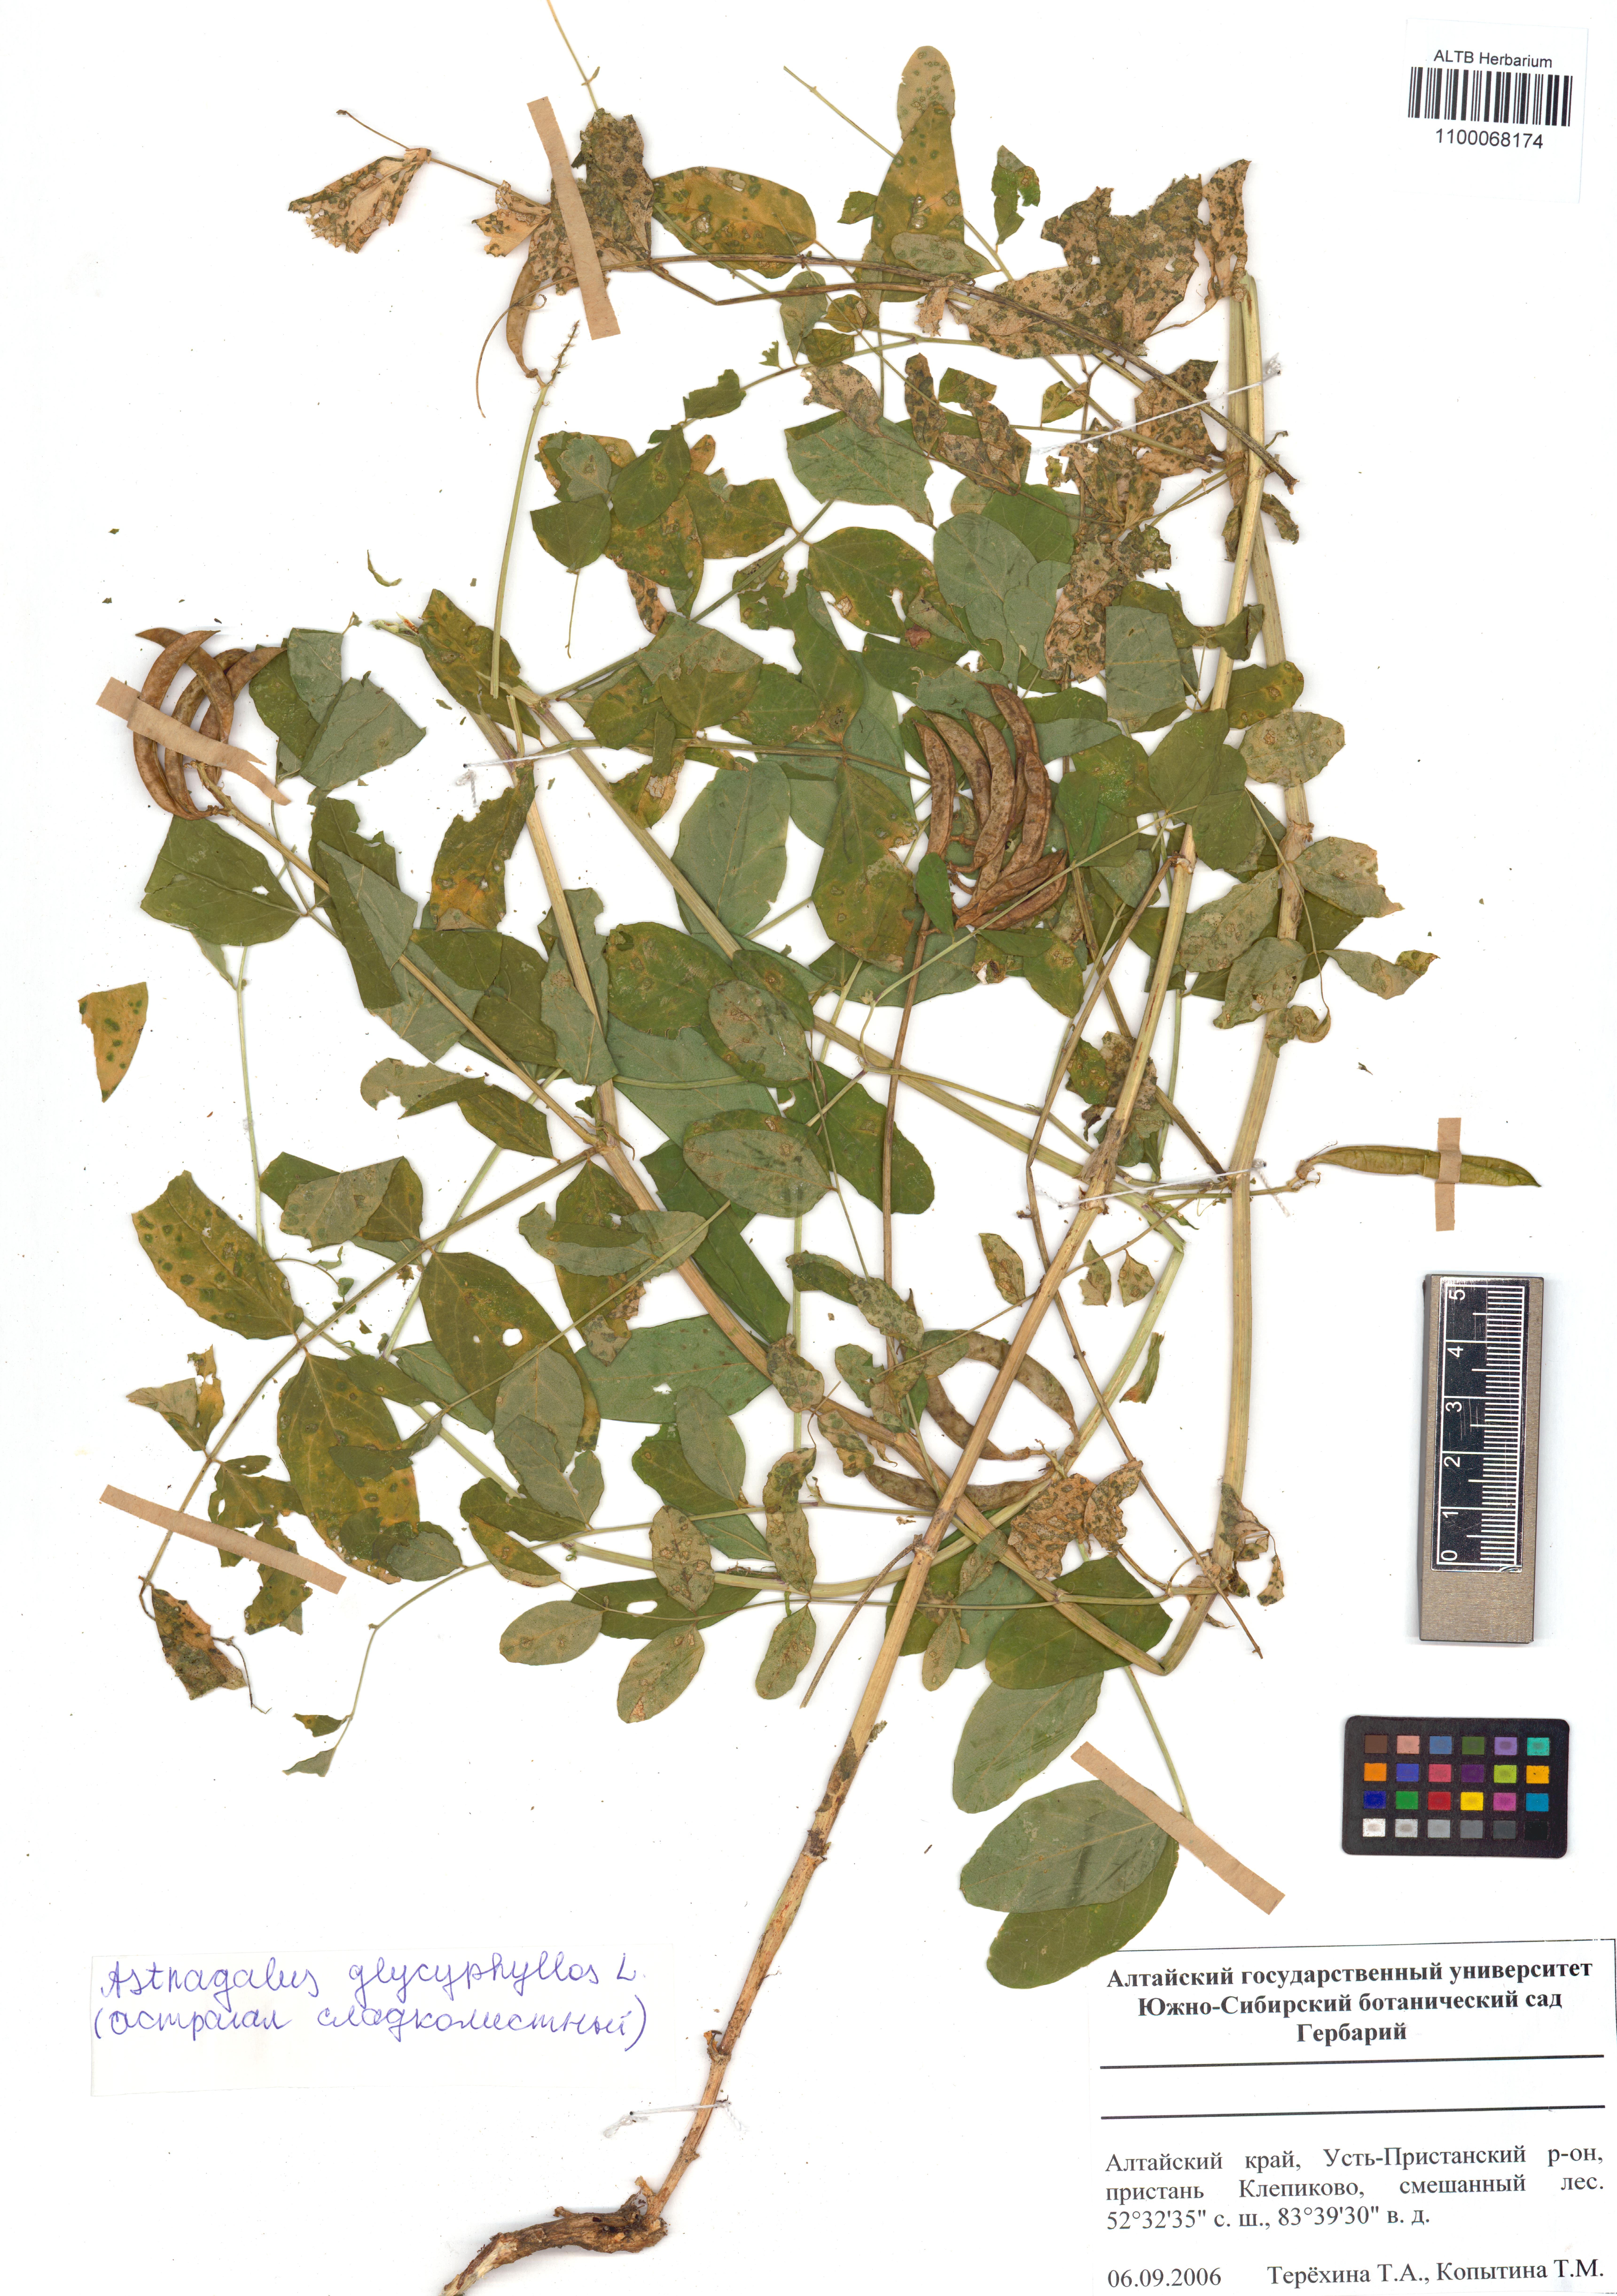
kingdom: Plantae
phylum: Tracheophyta
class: Magnoliopsida
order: Fabales
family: Fabaceae
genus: Astragalus
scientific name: Astragalus glycyphyllos
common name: Wild liquorice
